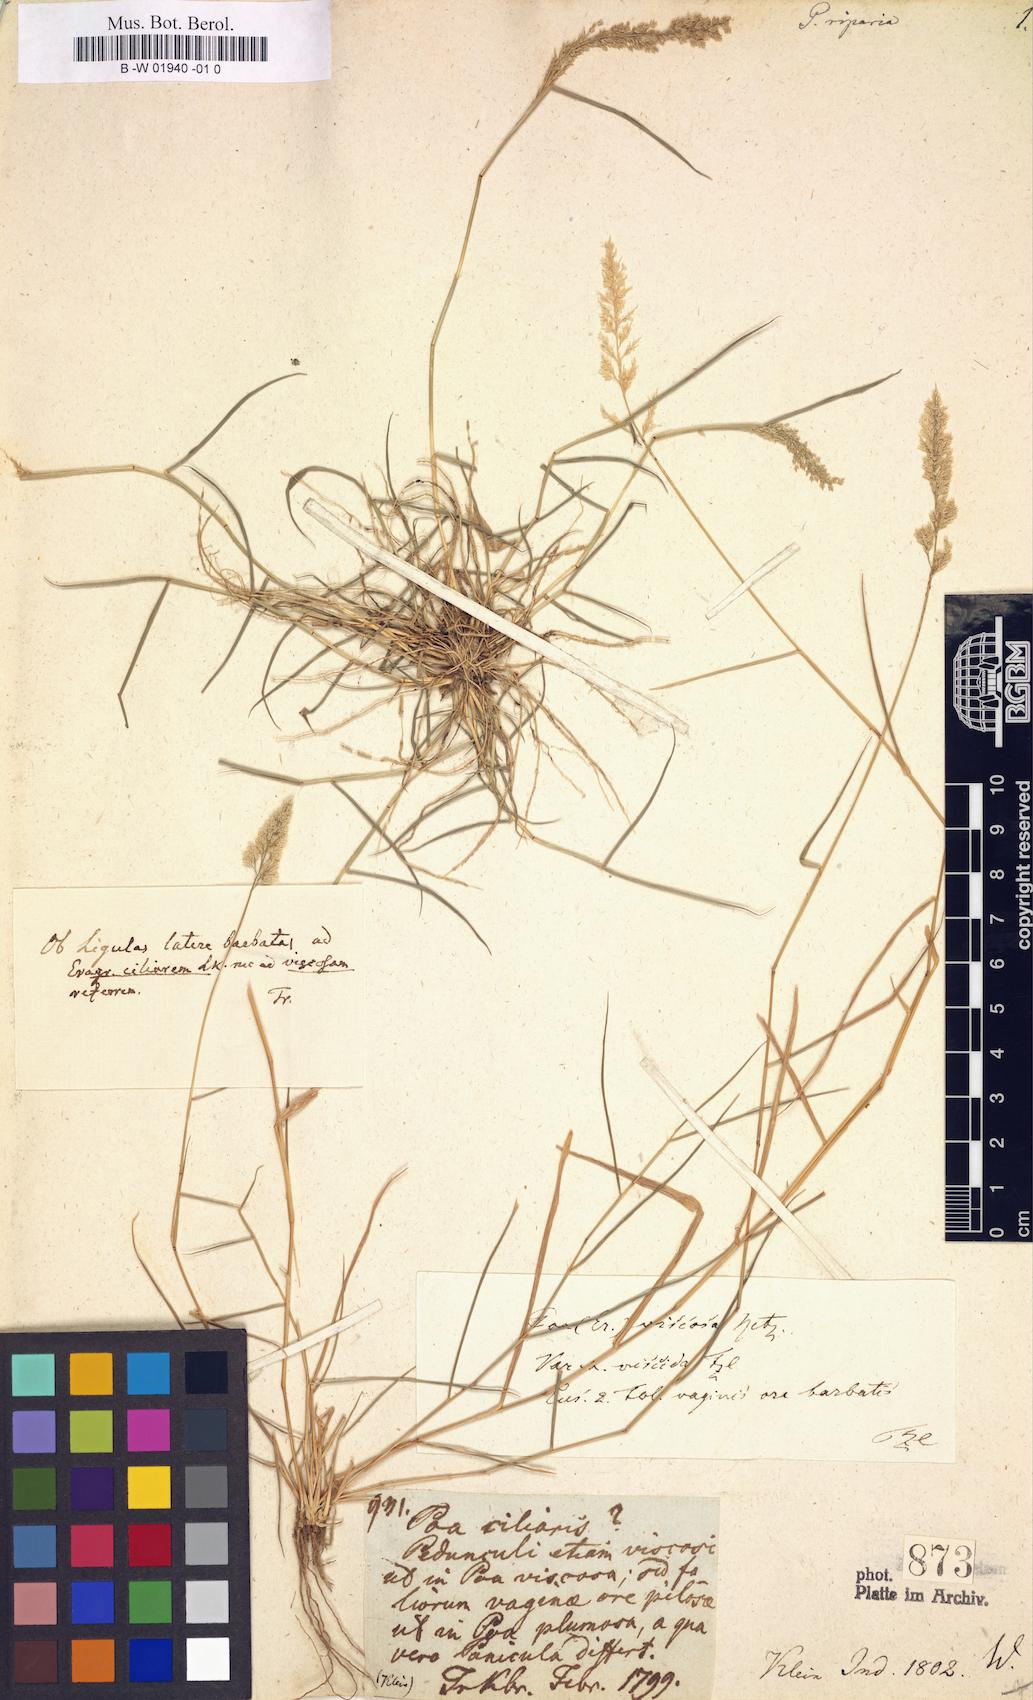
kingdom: Plantae
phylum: Tracheophyta
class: Liliopsida
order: Poales
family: Poaceae
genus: Eragrostis
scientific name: Eragrostis riparia
